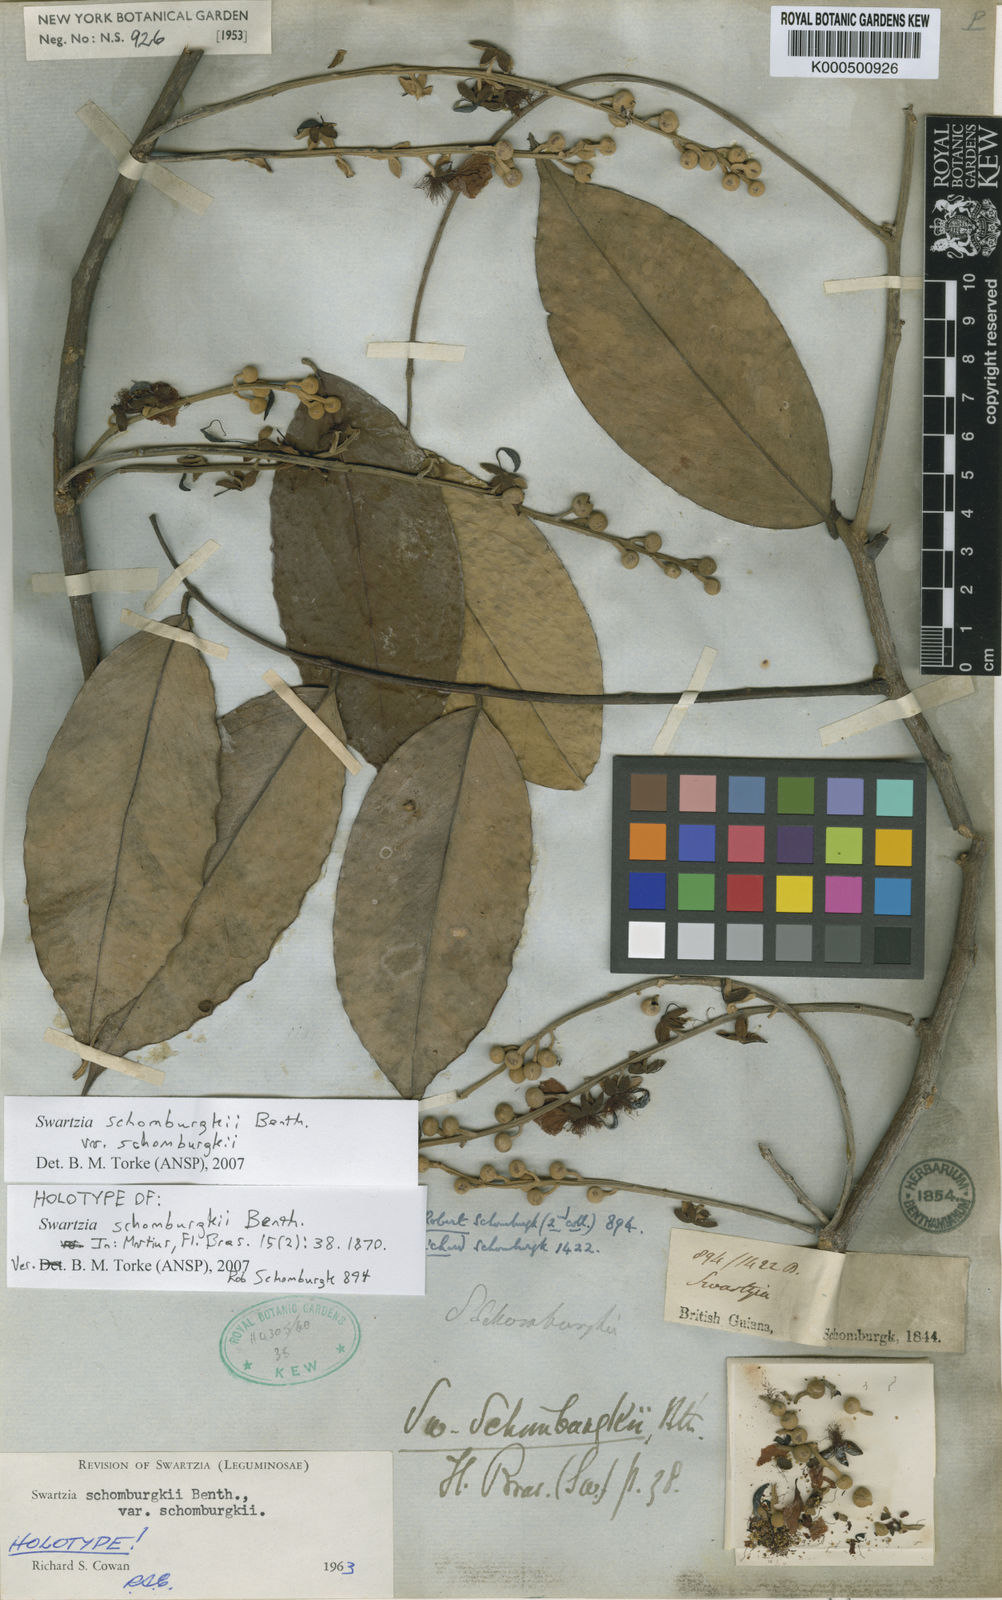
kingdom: Plantae
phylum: Tracheophyta
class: Magnoliopsida
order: Fabales
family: Fabaceae
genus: Swartzia
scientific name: Swartzia schomburgkii
